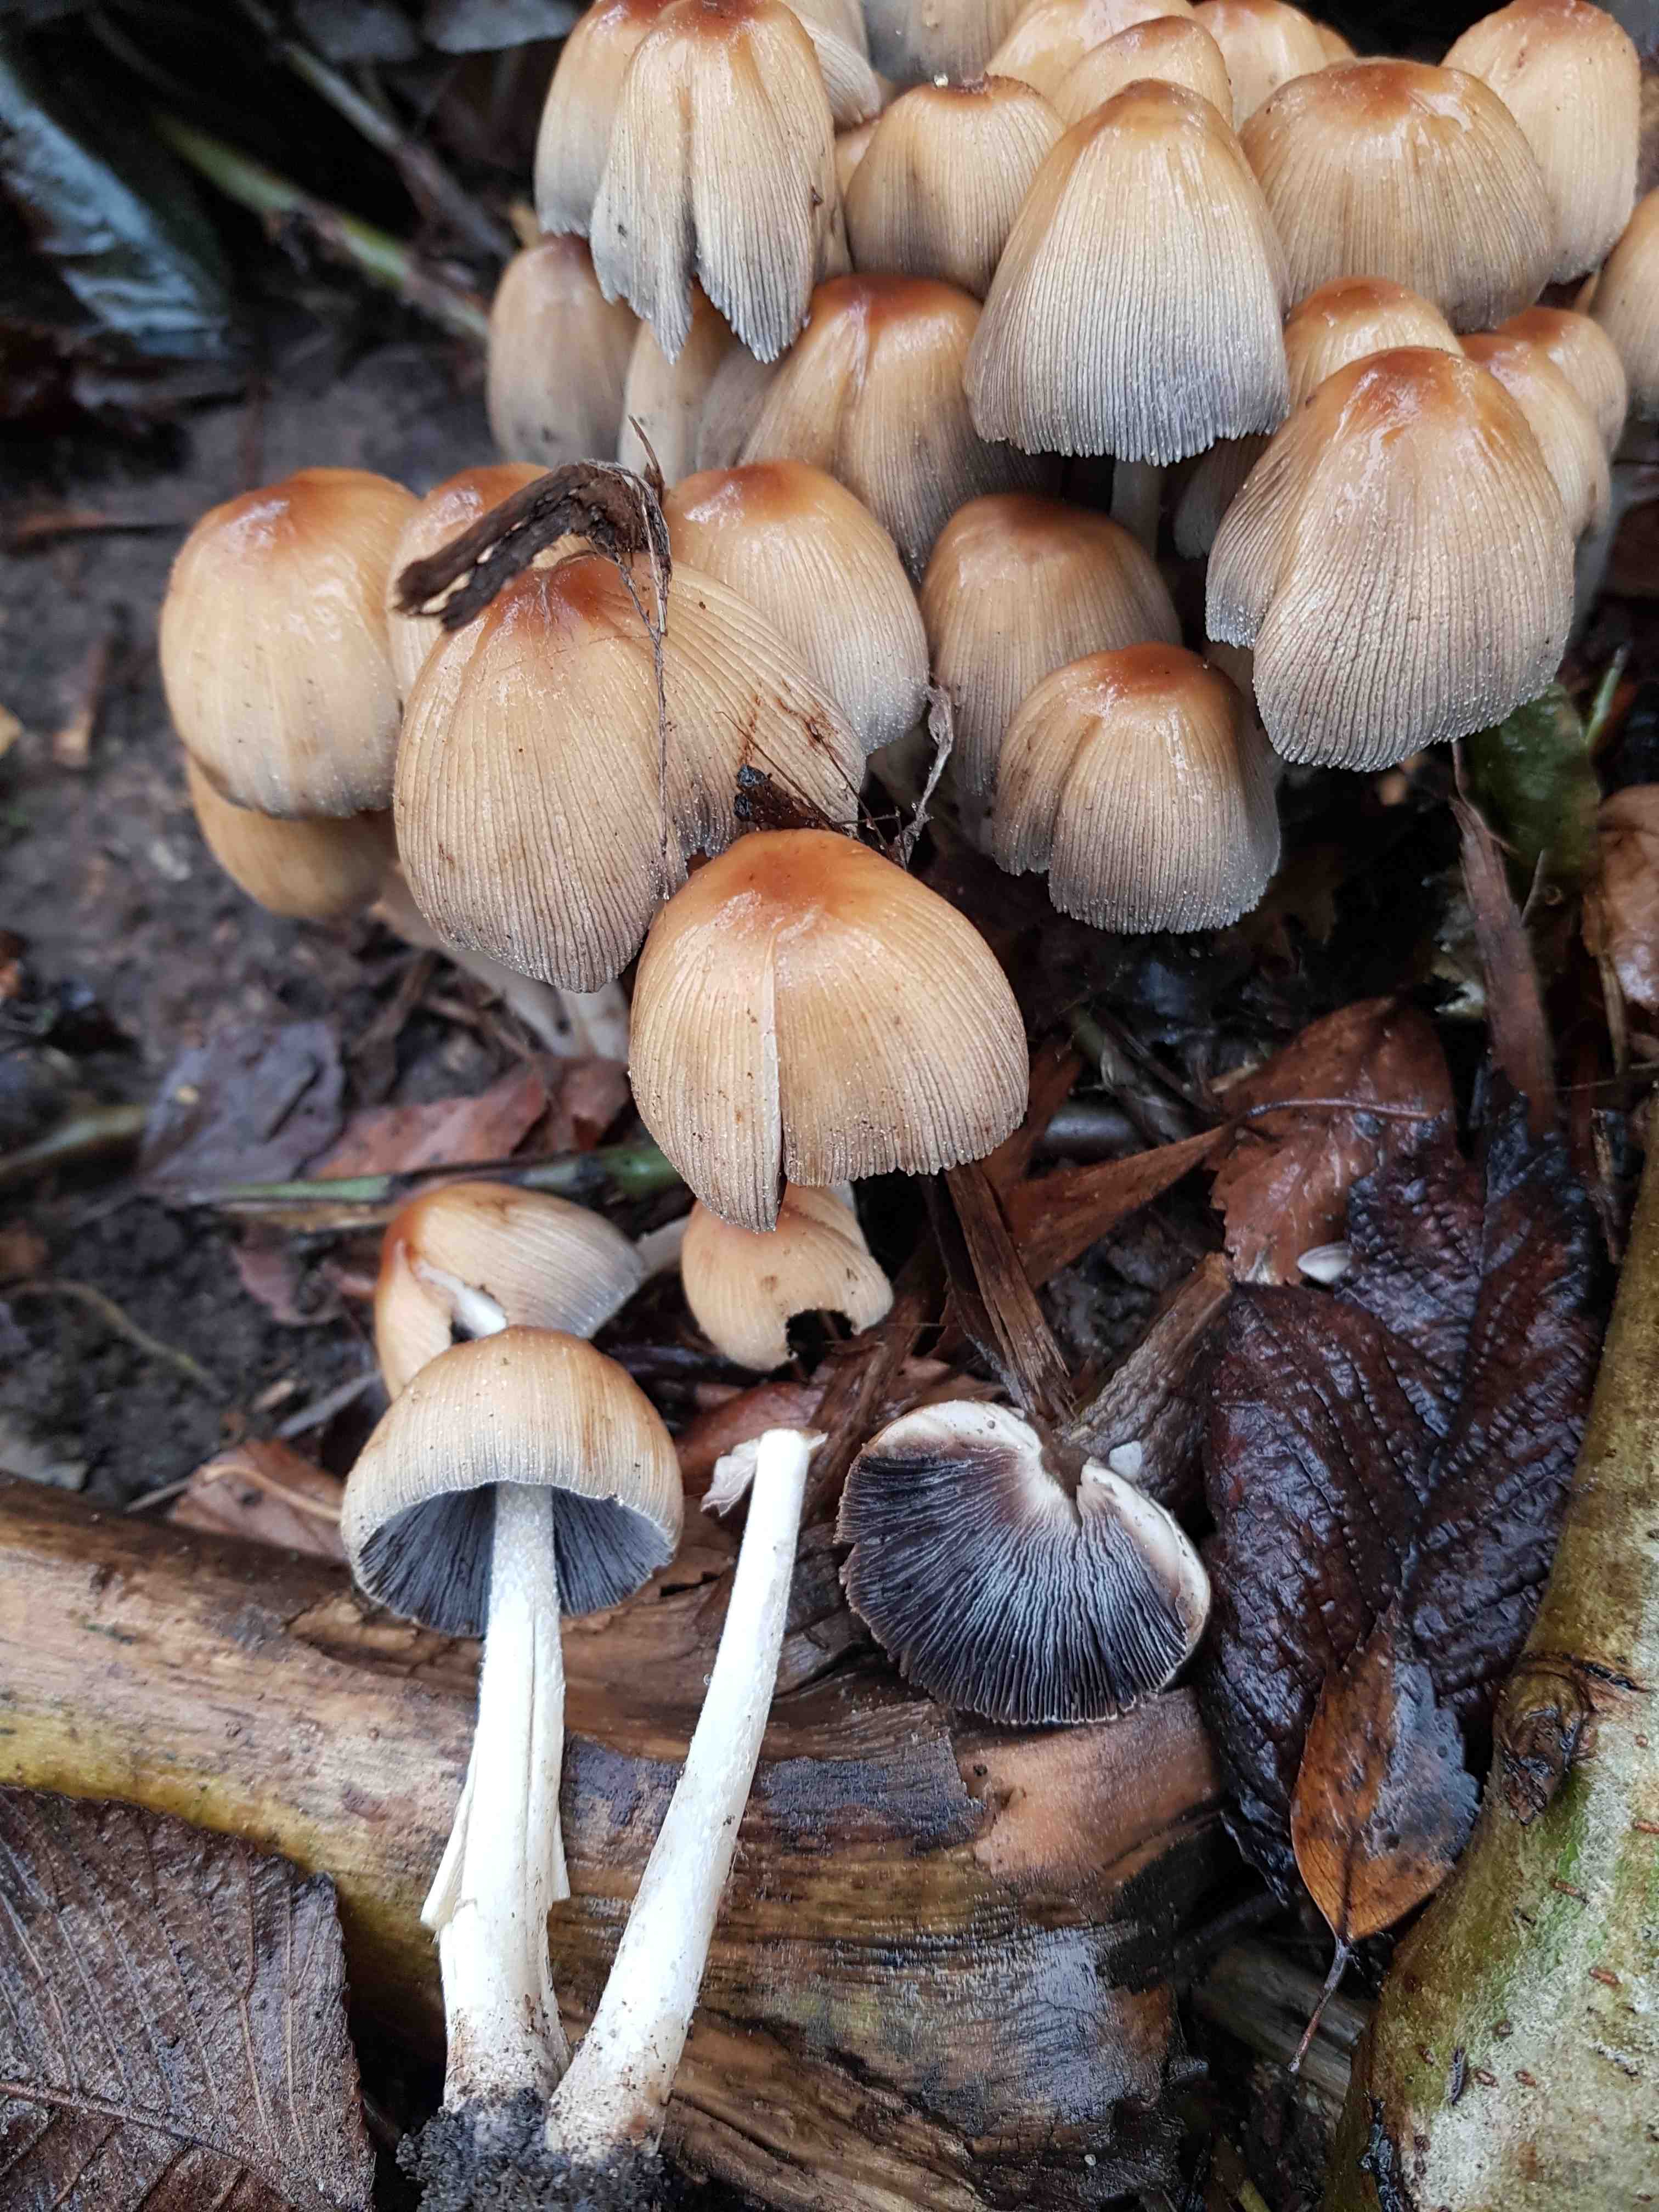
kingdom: Fungi
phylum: Basidiomycota
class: Agaricomycetes
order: Agaricales
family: Psathyrellaceae
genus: Coprinellus
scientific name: Coprinellus micaceus
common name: glimmer-blækhat
